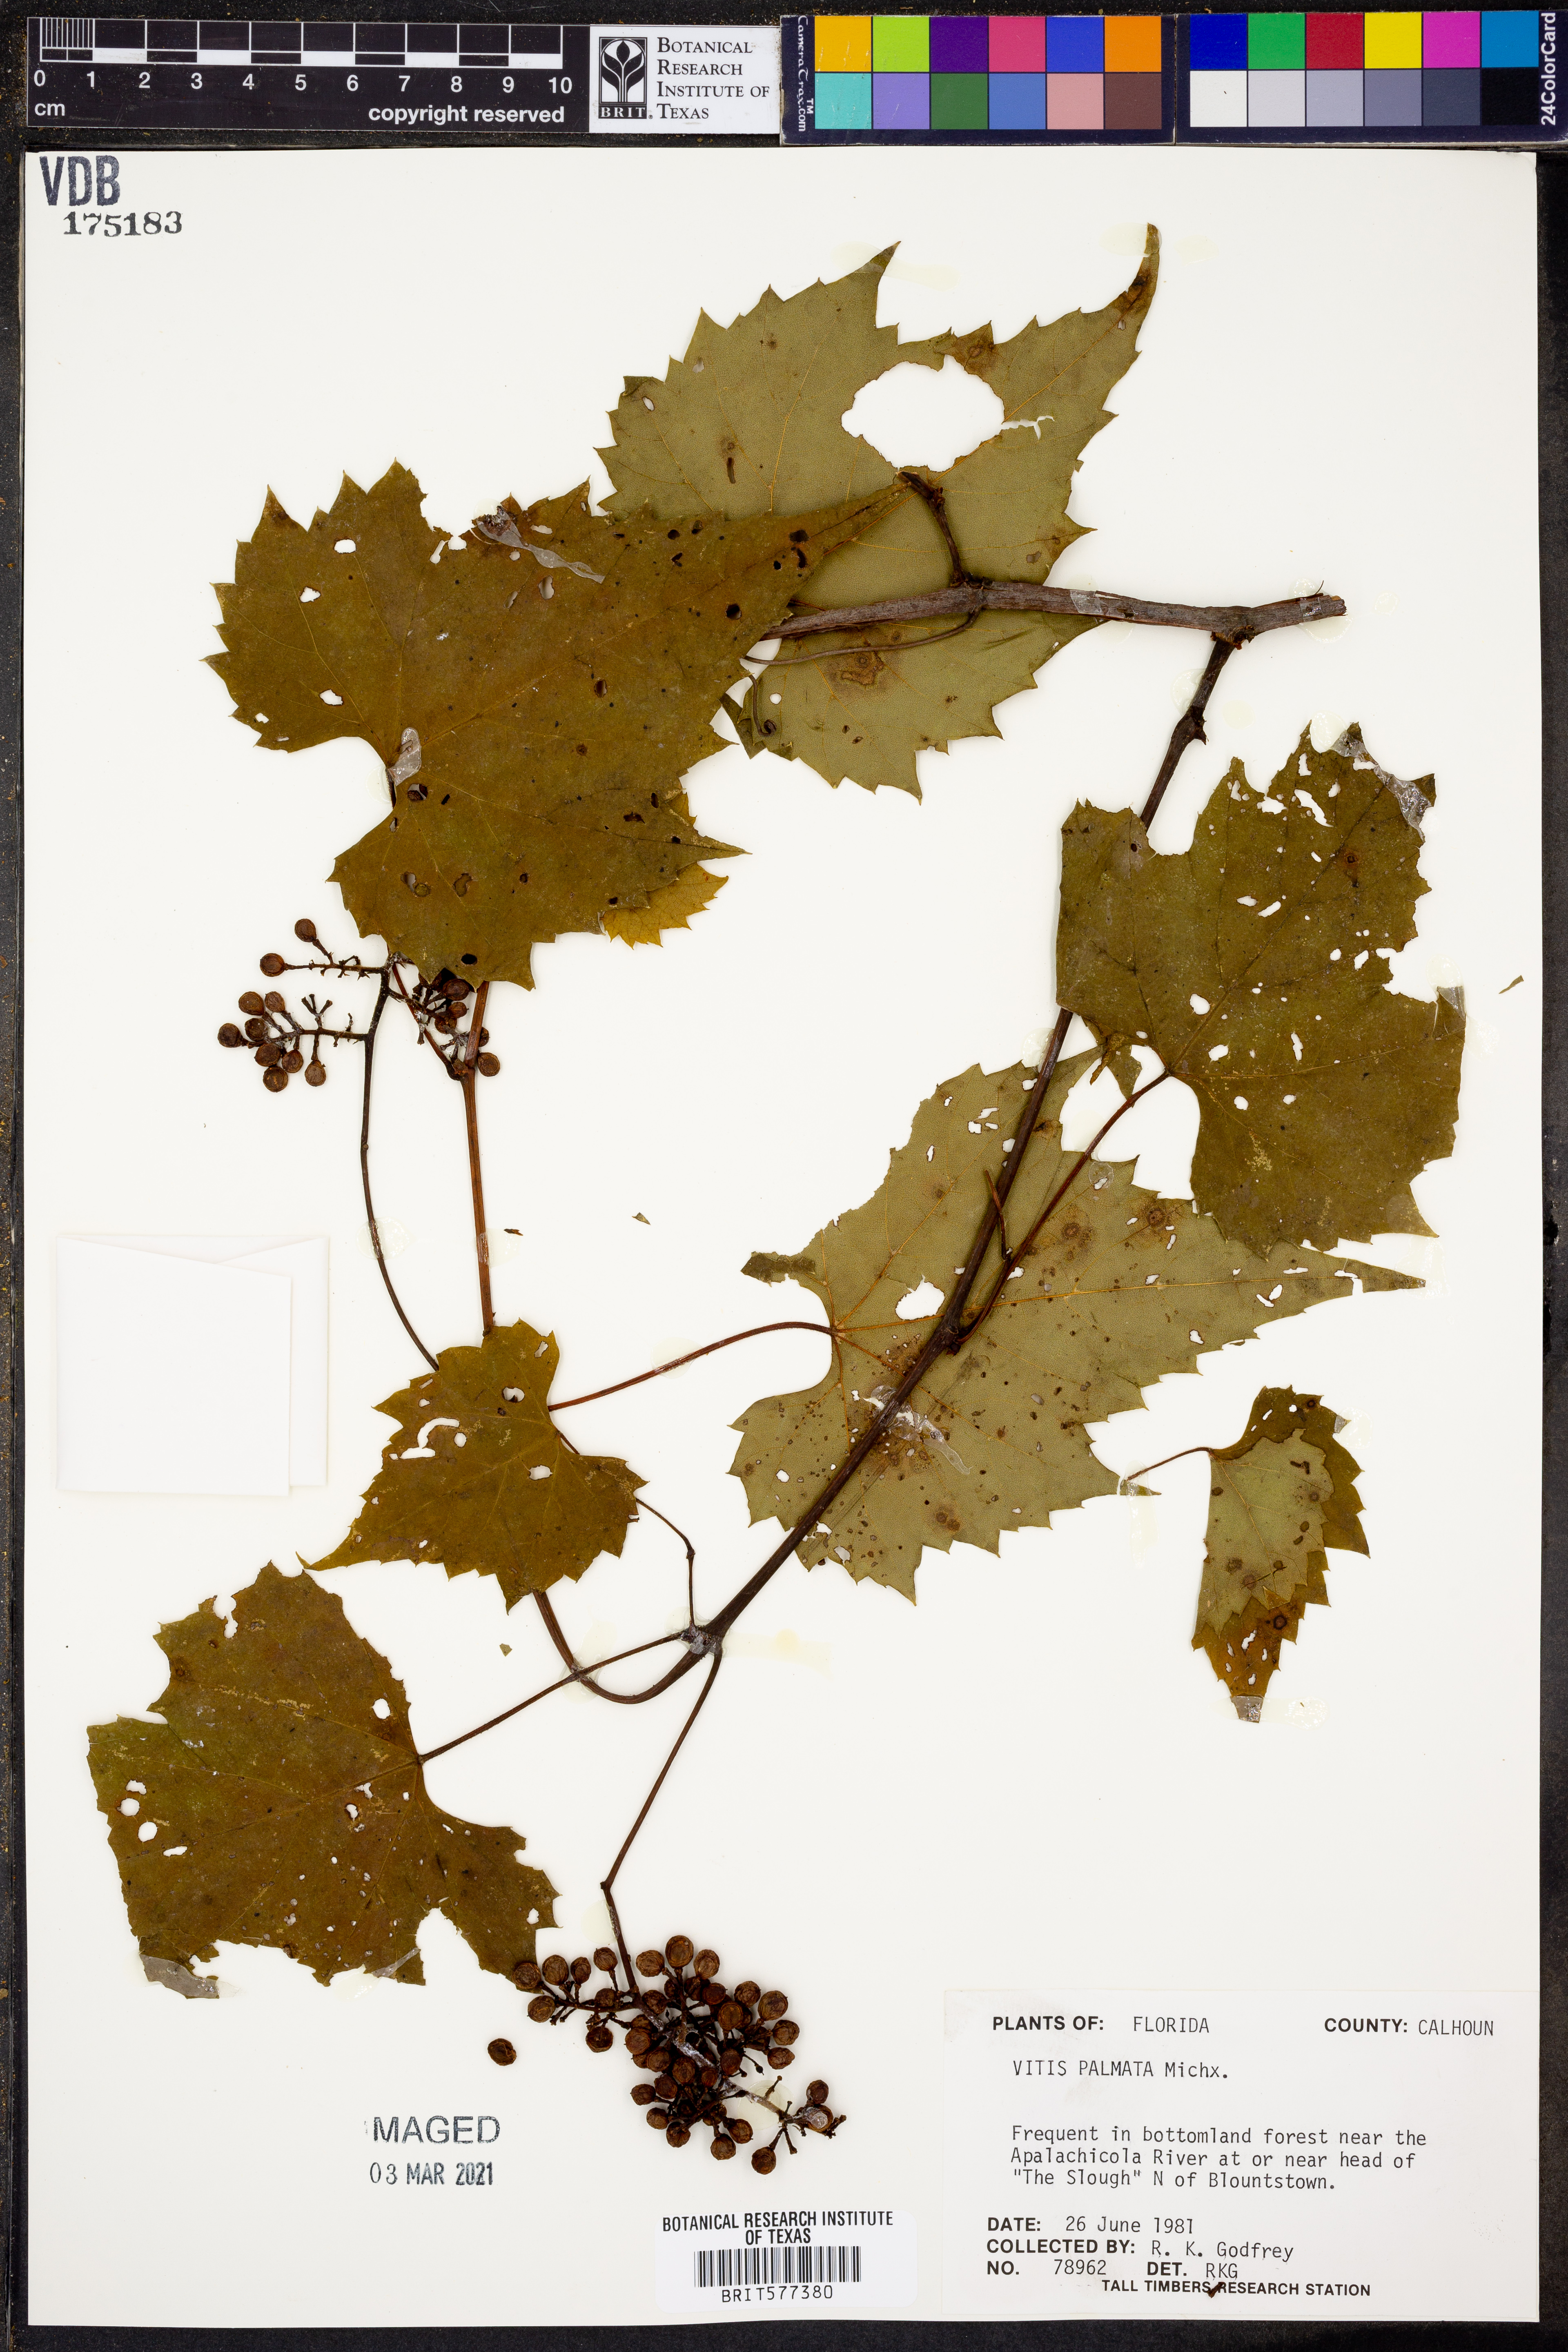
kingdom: Plantae
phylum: Tracheophyta
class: Magnoliopsida
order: Vitales
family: Vitaceae
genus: Vitis
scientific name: Vitis palmata
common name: Catbird grape
